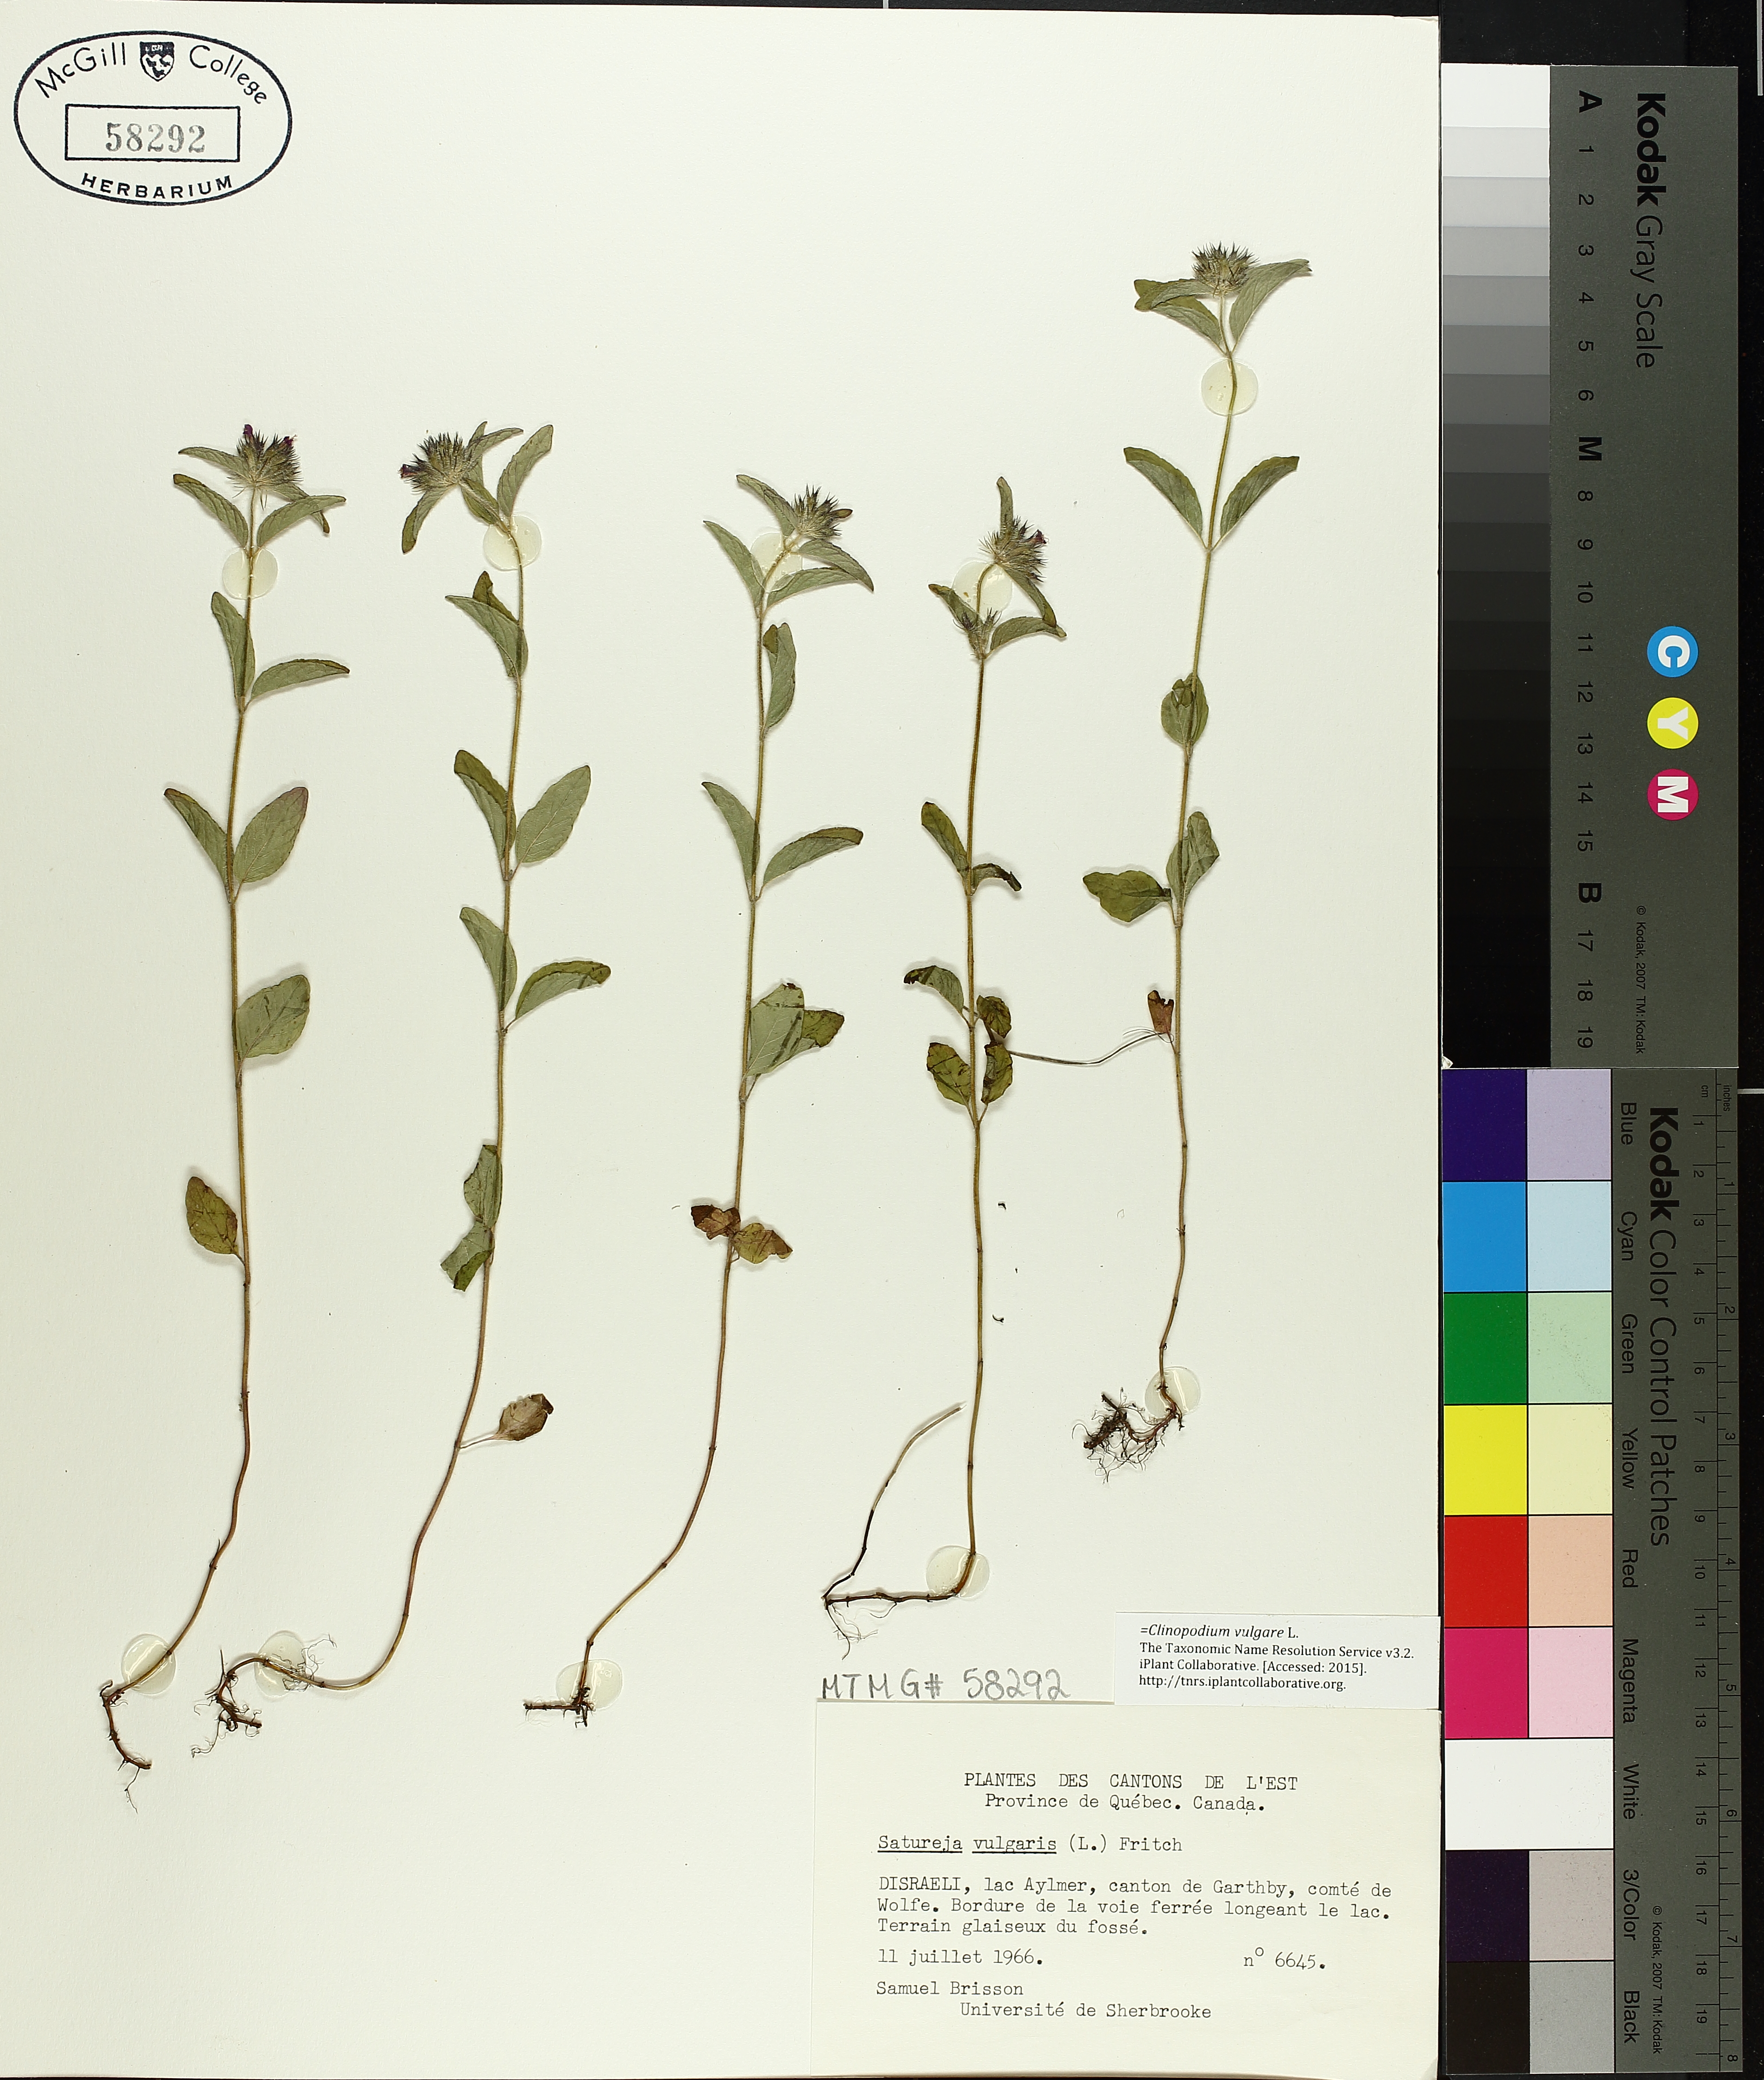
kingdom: Plantae
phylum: Tracheophyta
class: Magnoliopsida
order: Lamiales
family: Lamiaceae
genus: Clinopodium
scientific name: Clinopodium vulgare
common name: Wild basil
